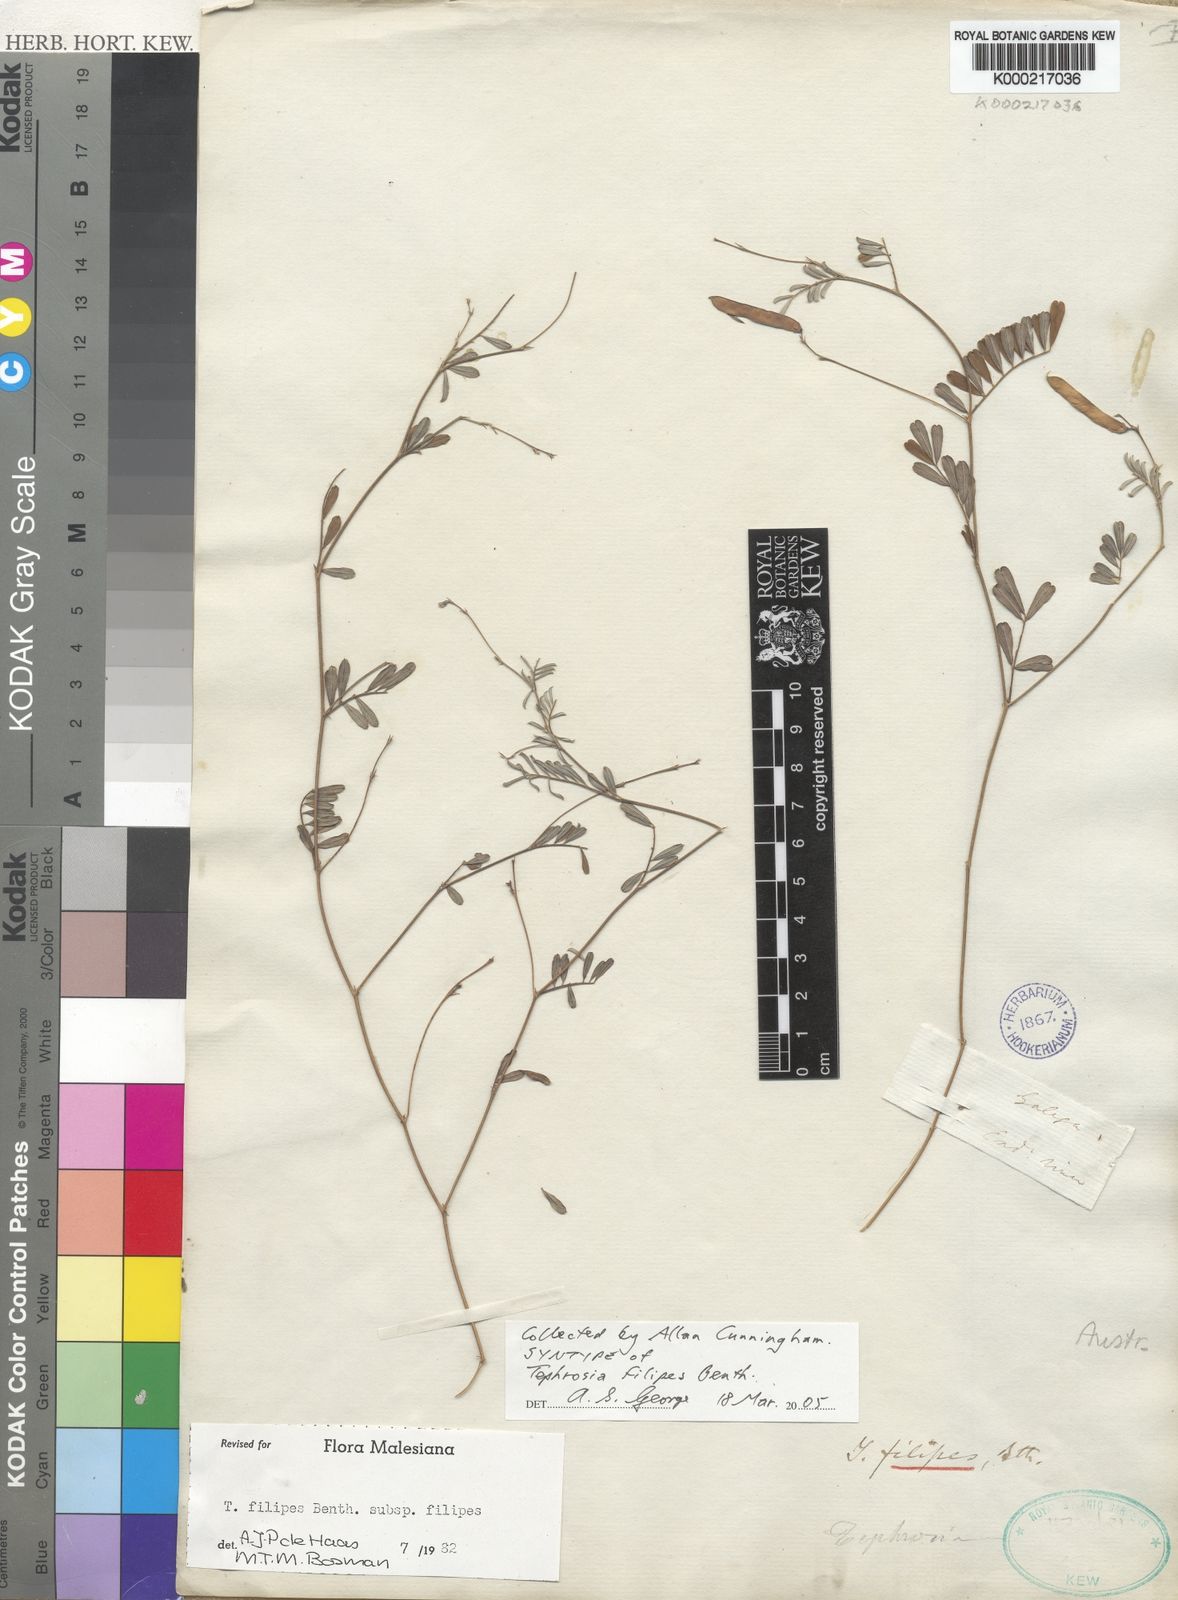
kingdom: Plantae
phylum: Tracheophyta
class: Magnoliopsida
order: Fabales
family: Fabaceae
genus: Tephrosia
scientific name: Tephrosia filipes
